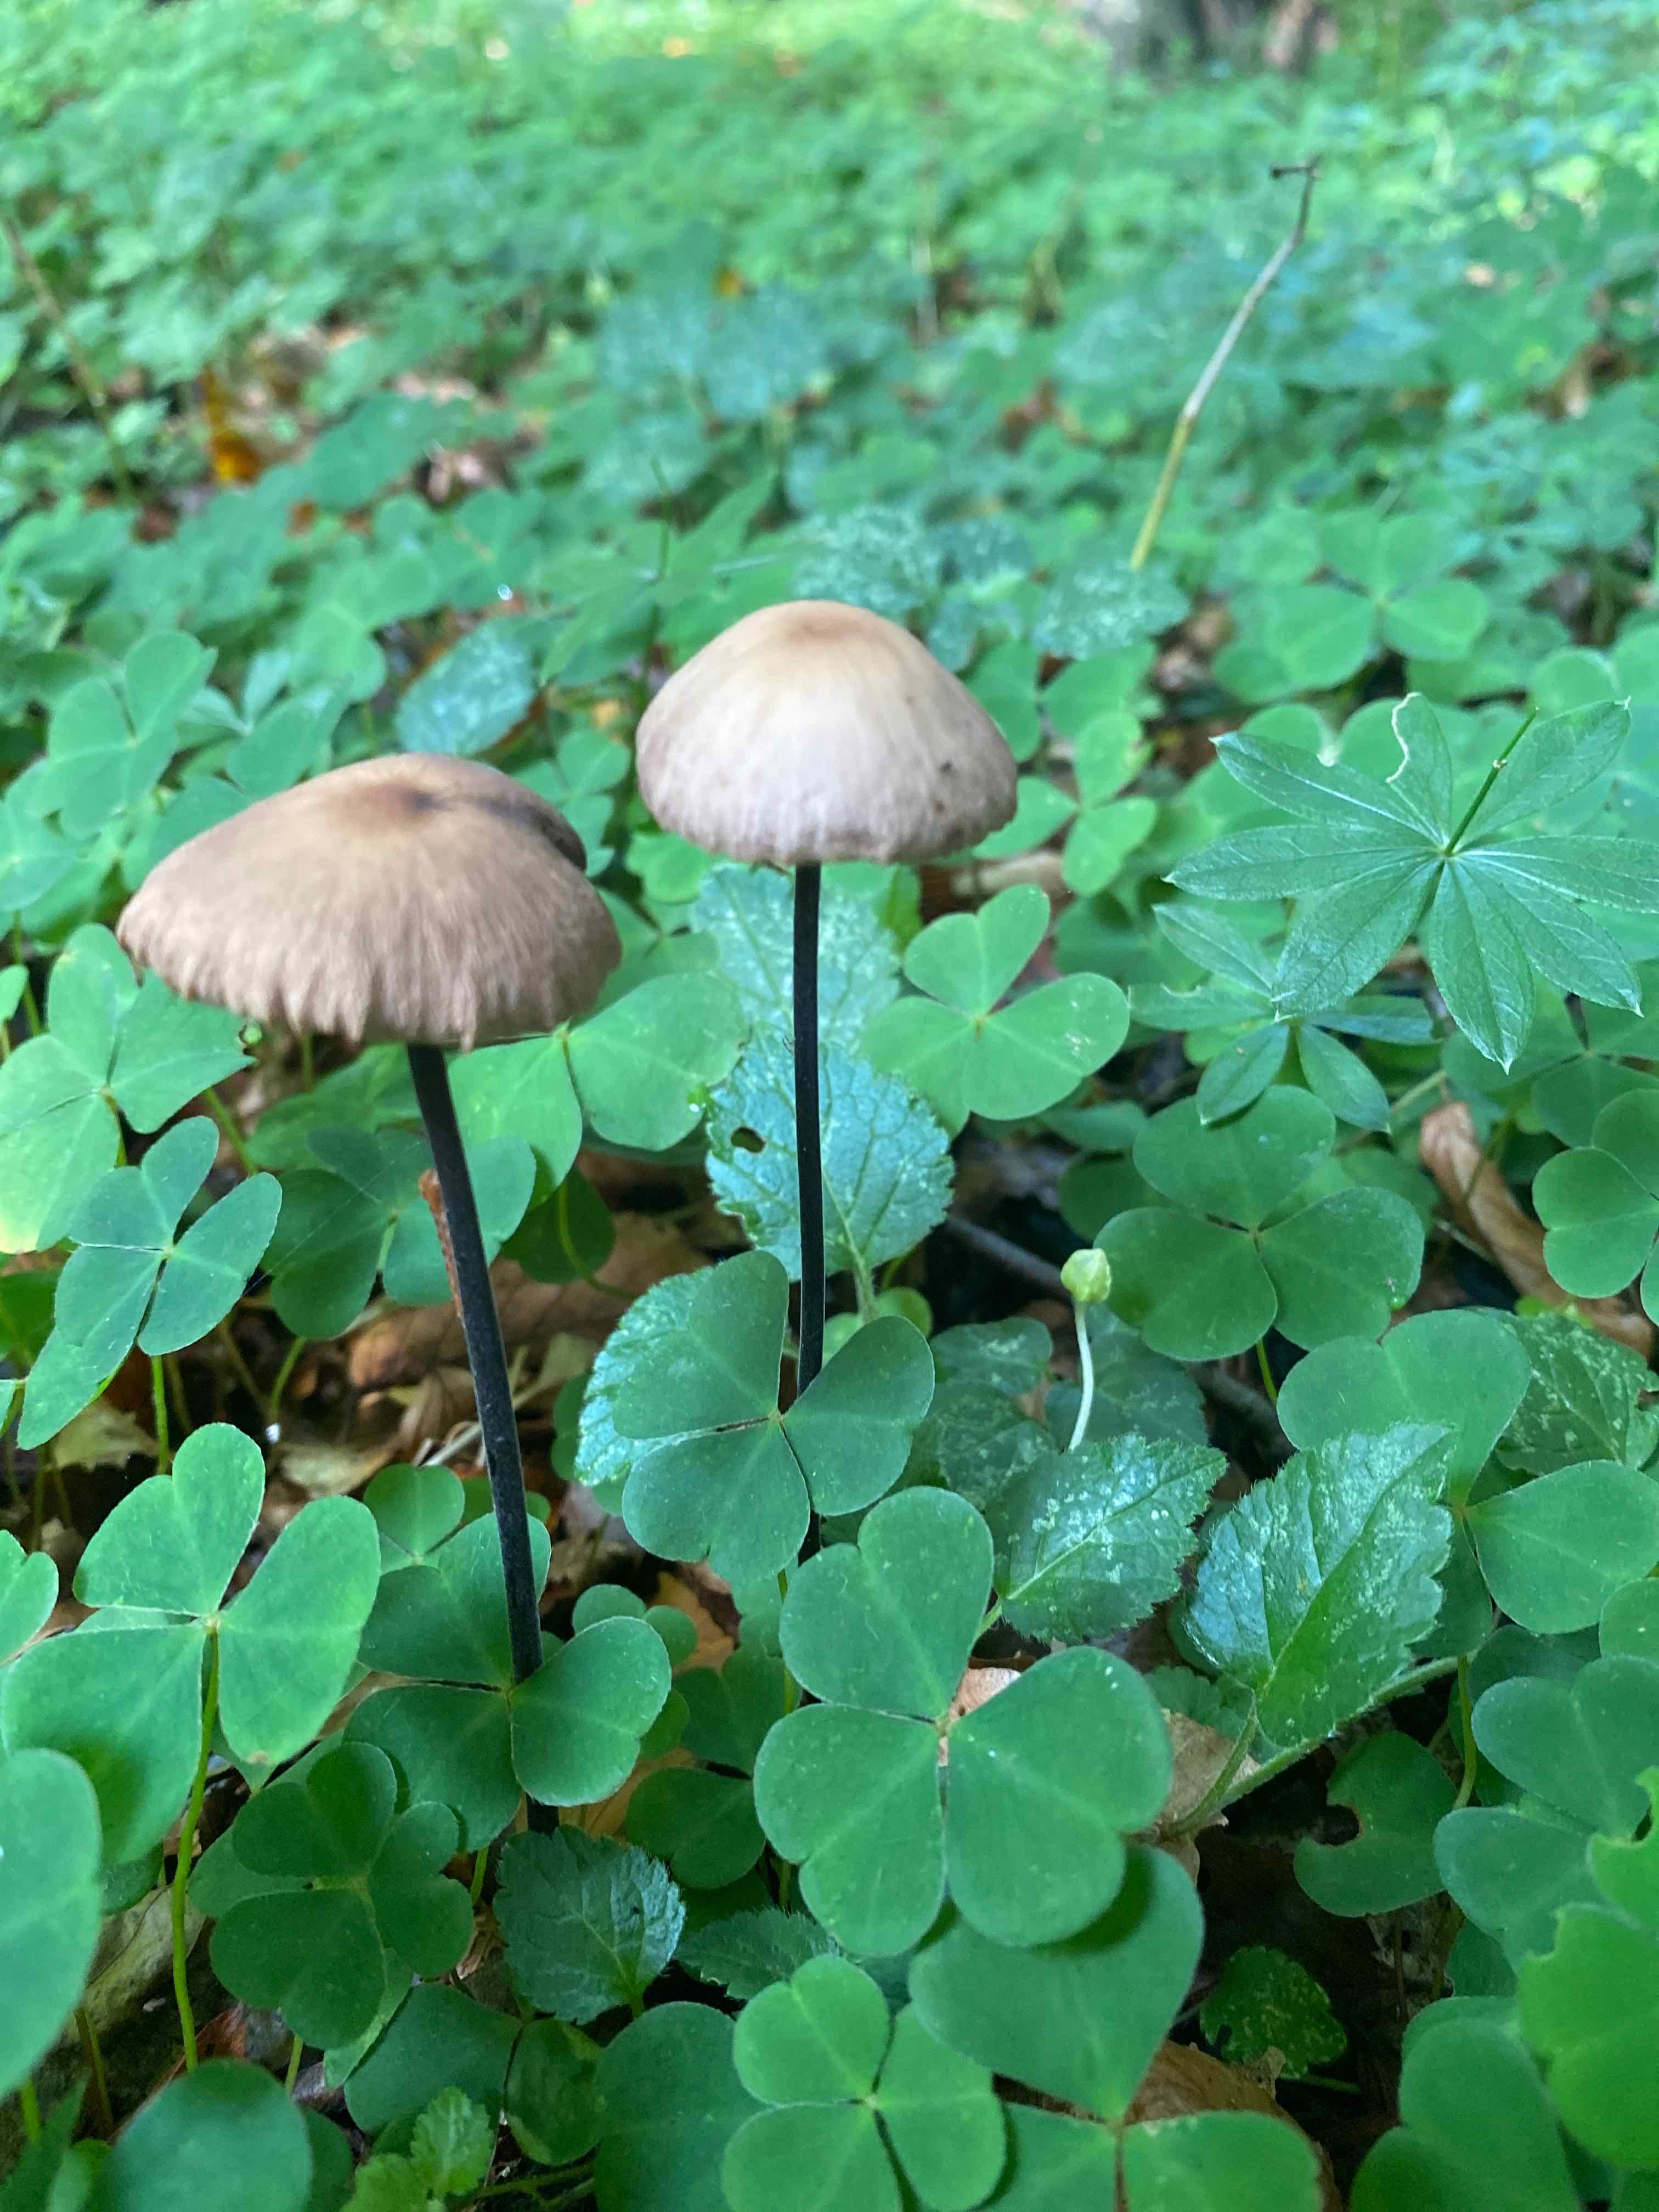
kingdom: Fungi
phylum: Basidiomycota
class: Agaricomycetes
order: Agaricales
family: Omphalotaceae
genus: Mycetinis
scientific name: Mycetinis alliaceus
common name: stor løghat
